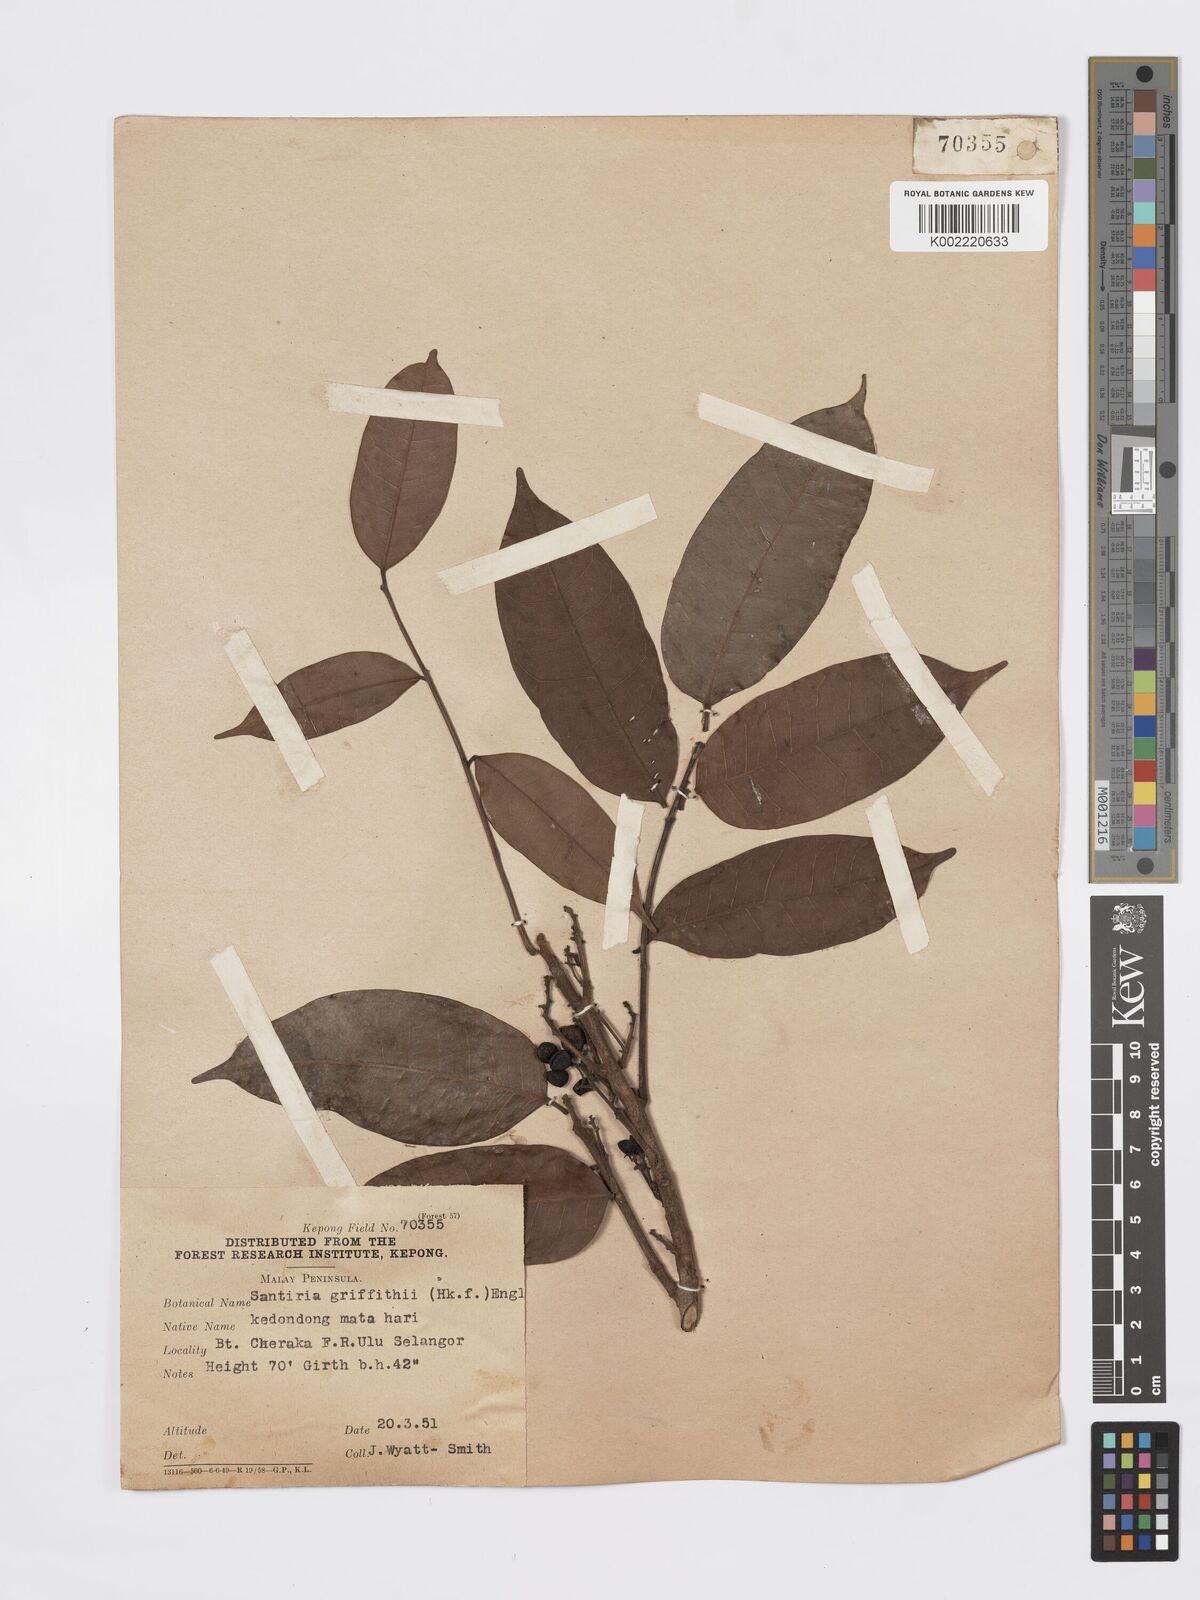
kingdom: Plantae
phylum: Tracheophyta
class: Magnoliopsida
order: Sapindales
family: Burseraceae
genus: Santiria
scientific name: Santiria griffithii
